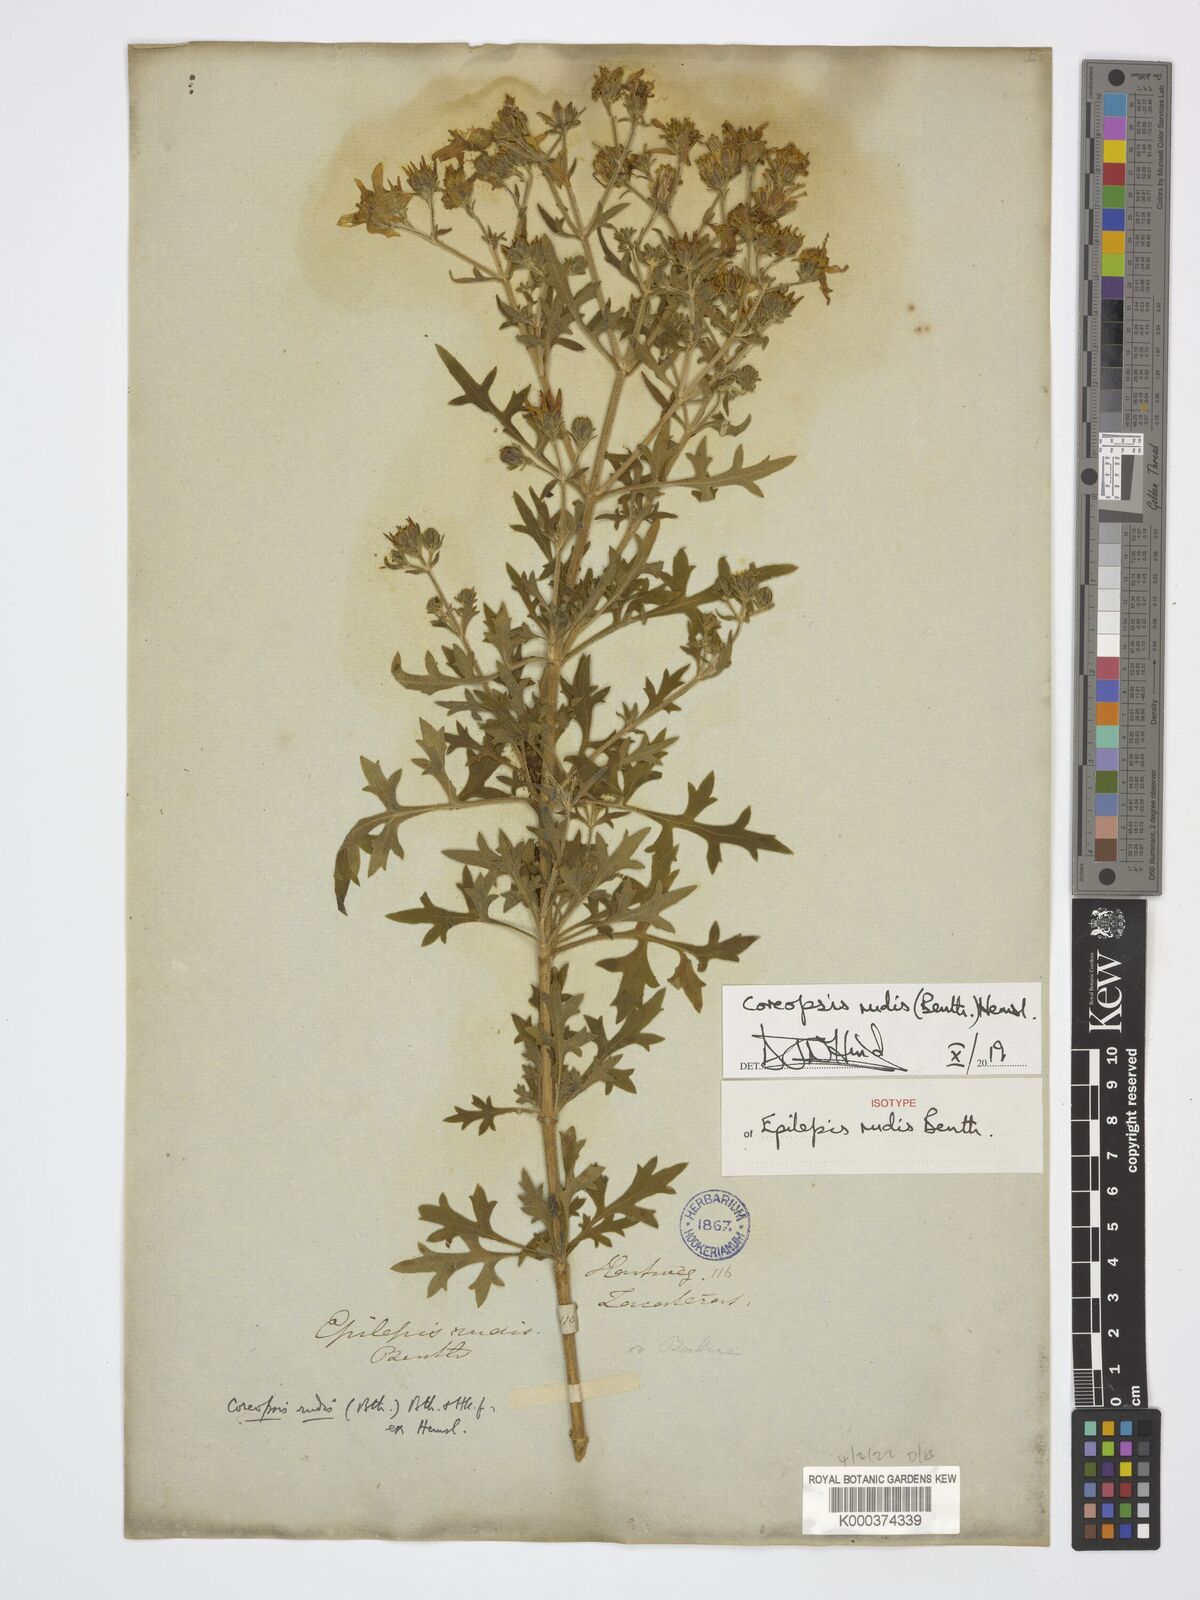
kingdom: Plantae
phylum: Tracheophyta
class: Magnoliopsida
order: Asterales
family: Asteraceae
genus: Coreopsis
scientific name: Coreopsis rudis
